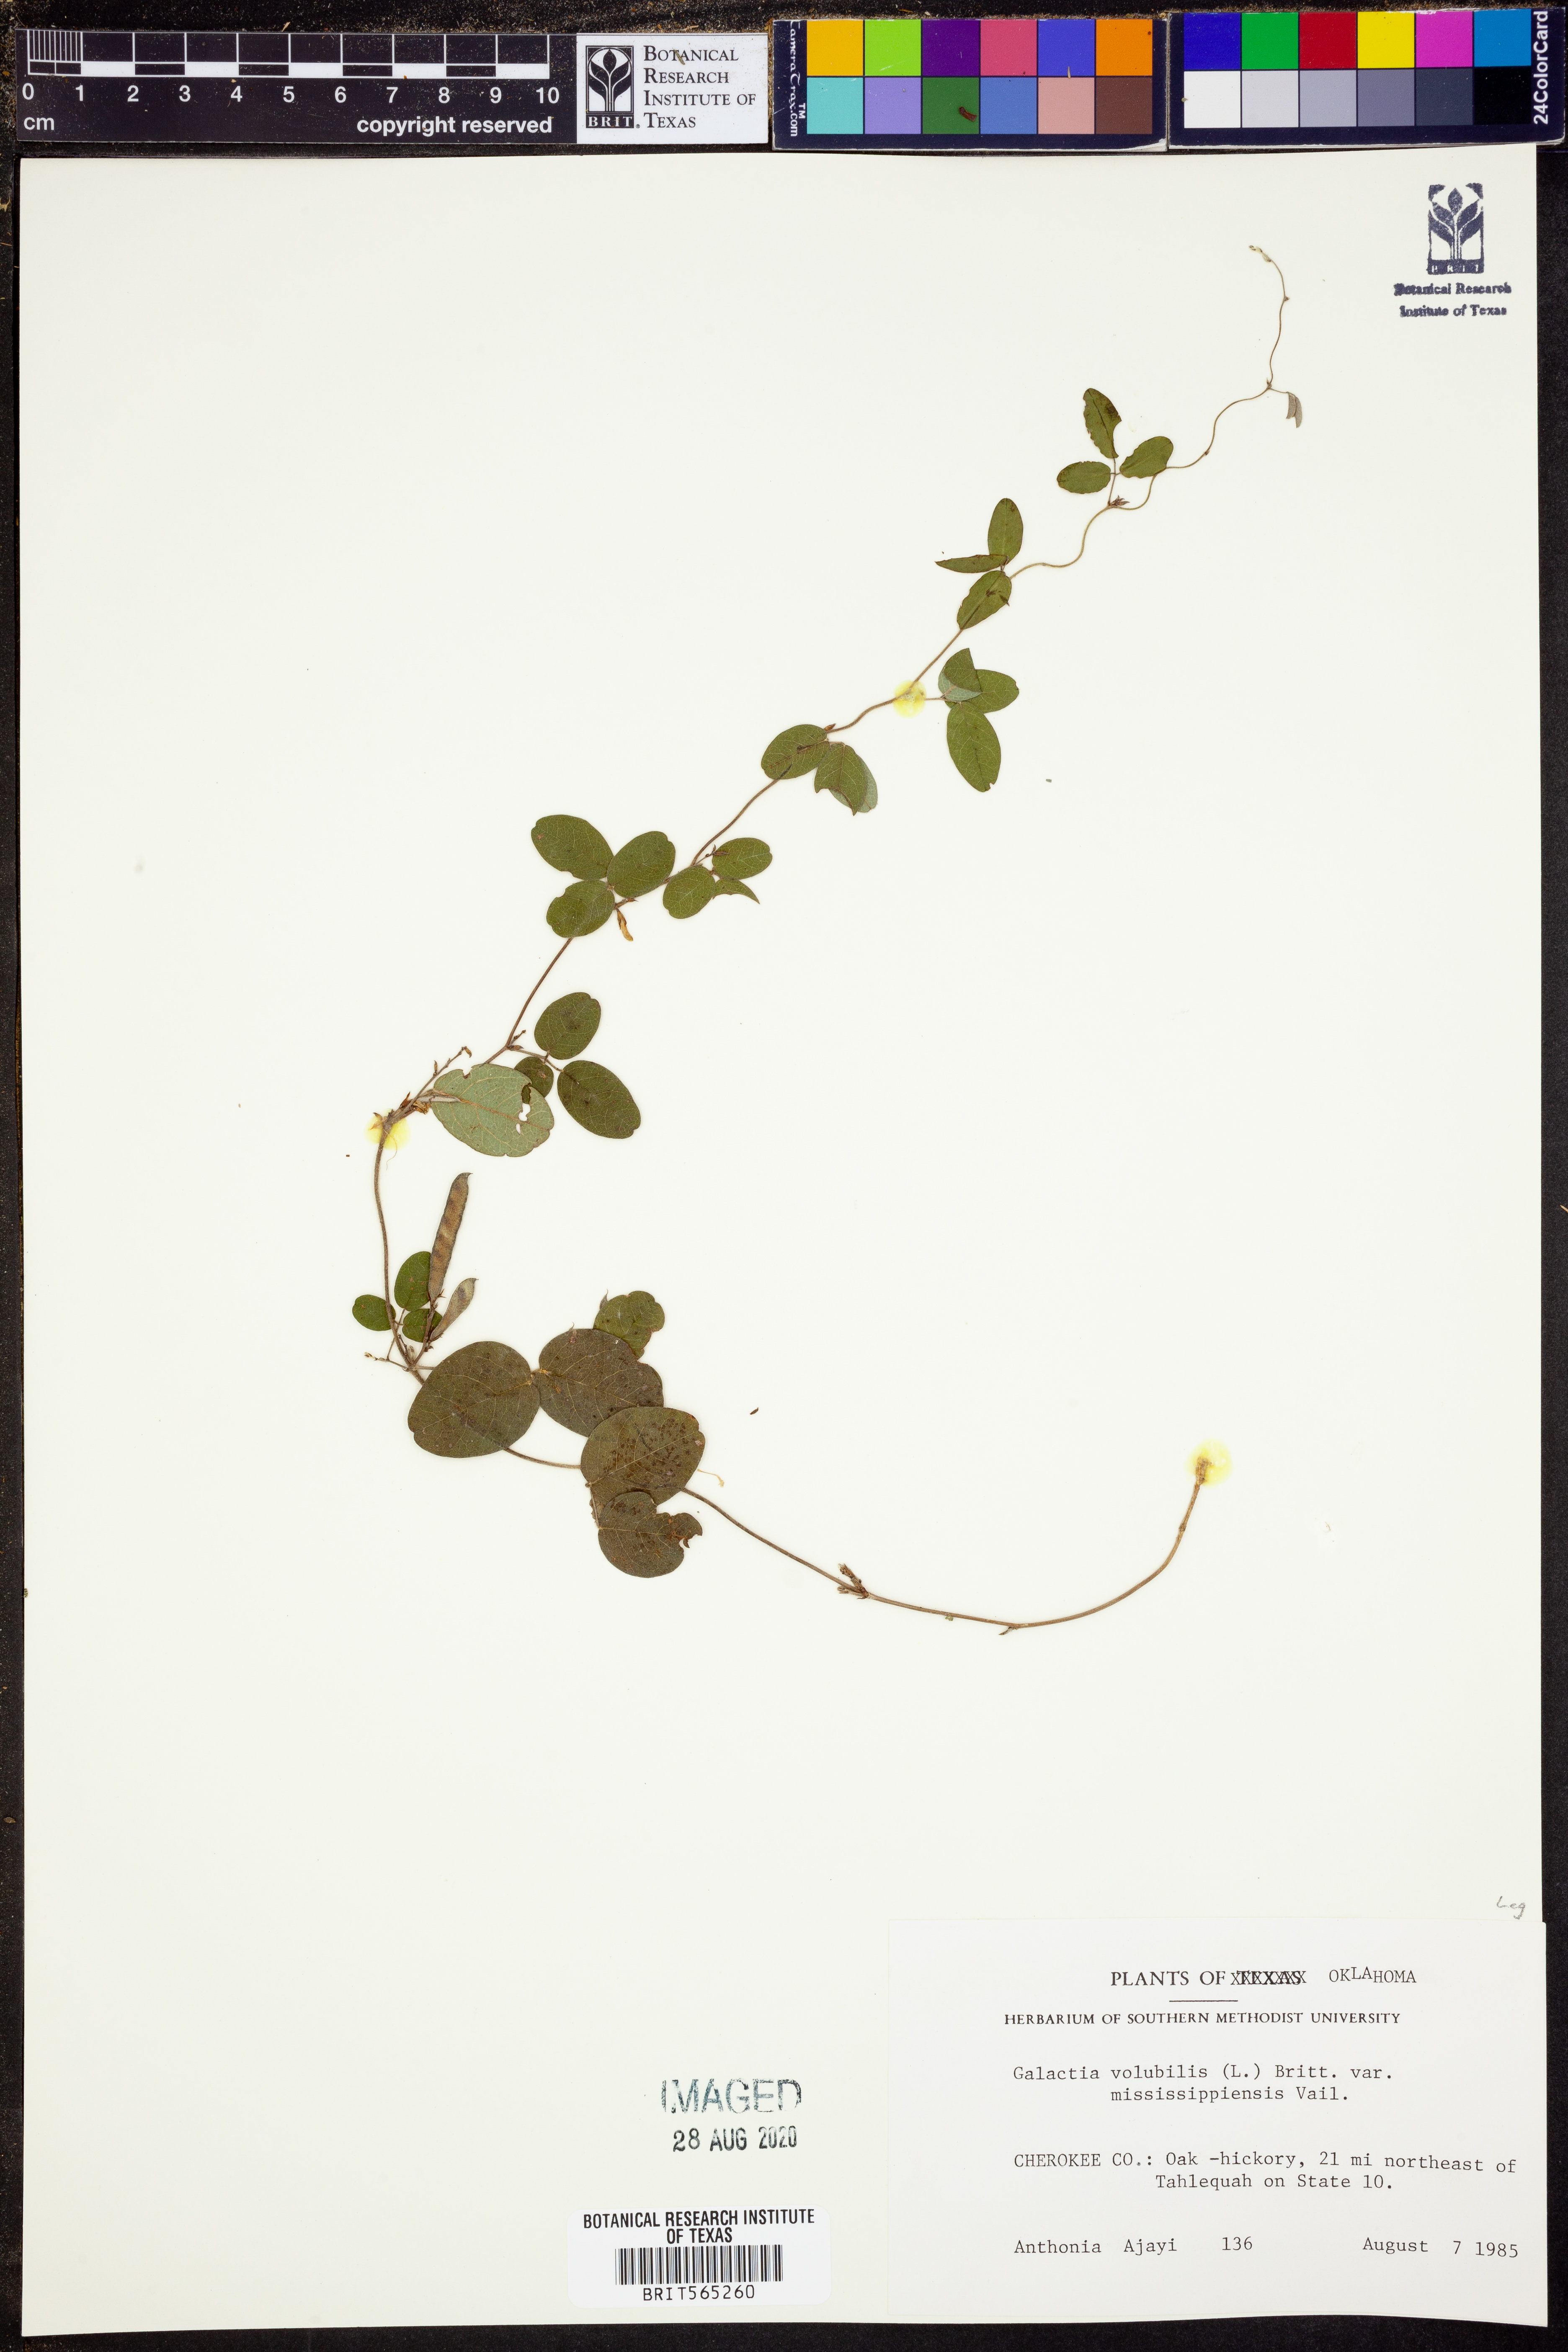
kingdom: Plantae
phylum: Tracheophyta
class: Magnoliopsida
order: Fabales
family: Fabaceae
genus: Galactia
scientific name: Galactia volubilis
